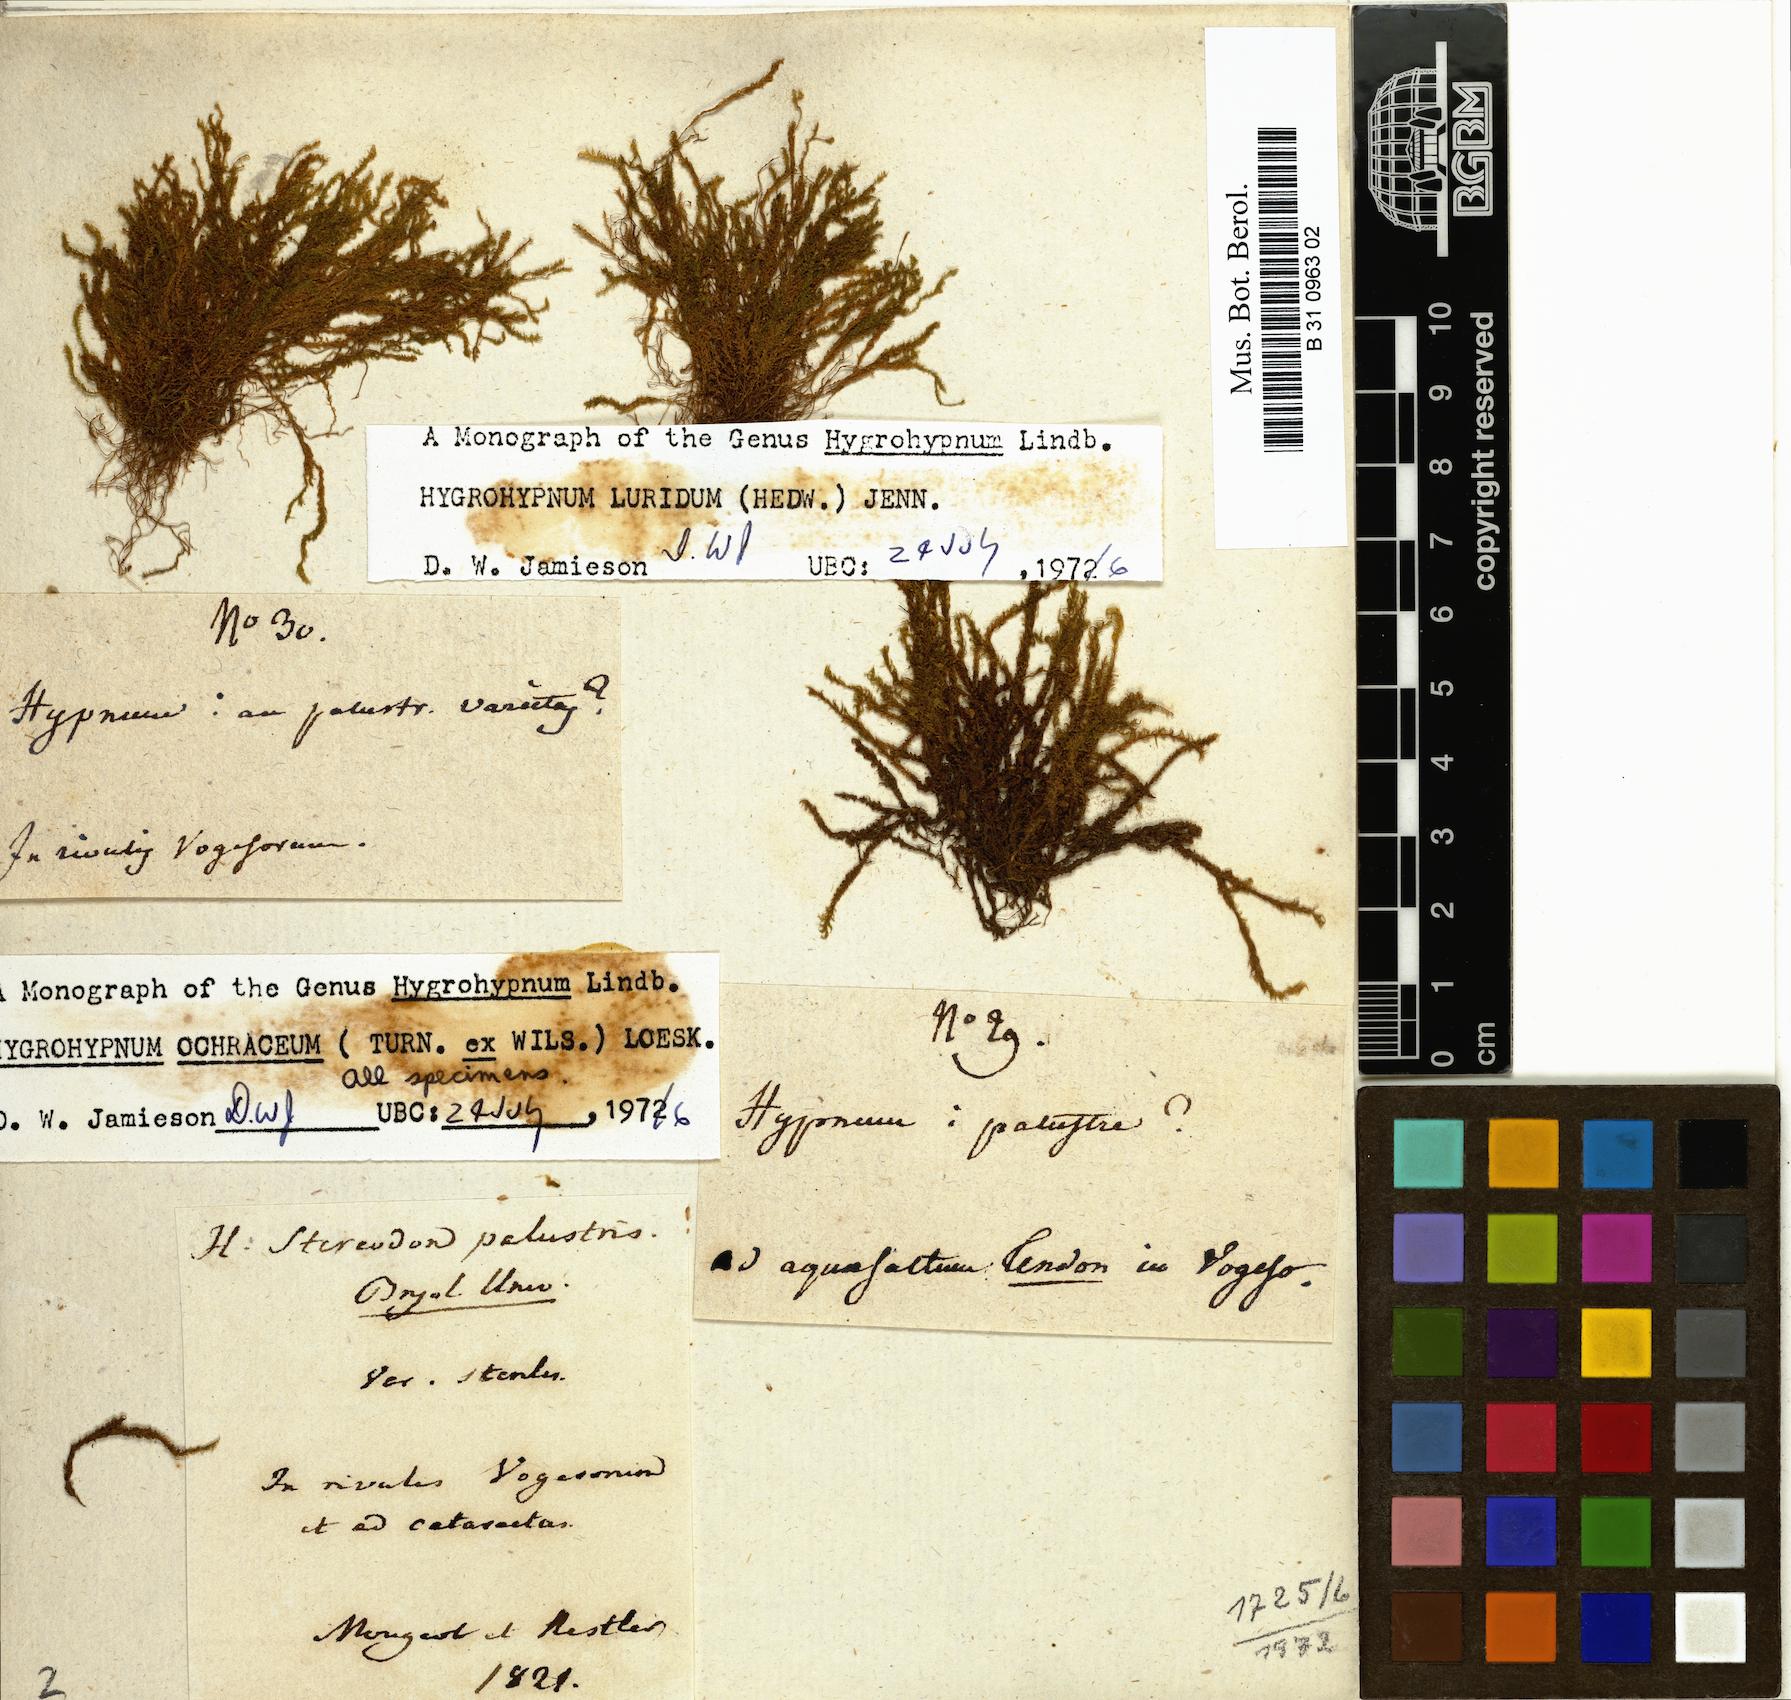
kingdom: Plantae
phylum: Bryophyta
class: Bryopsida
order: Hypnales
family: Amblystegiaceae
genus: Hygrohypnum
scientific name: Hygrohypnum luridum
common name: Drab brook moss
